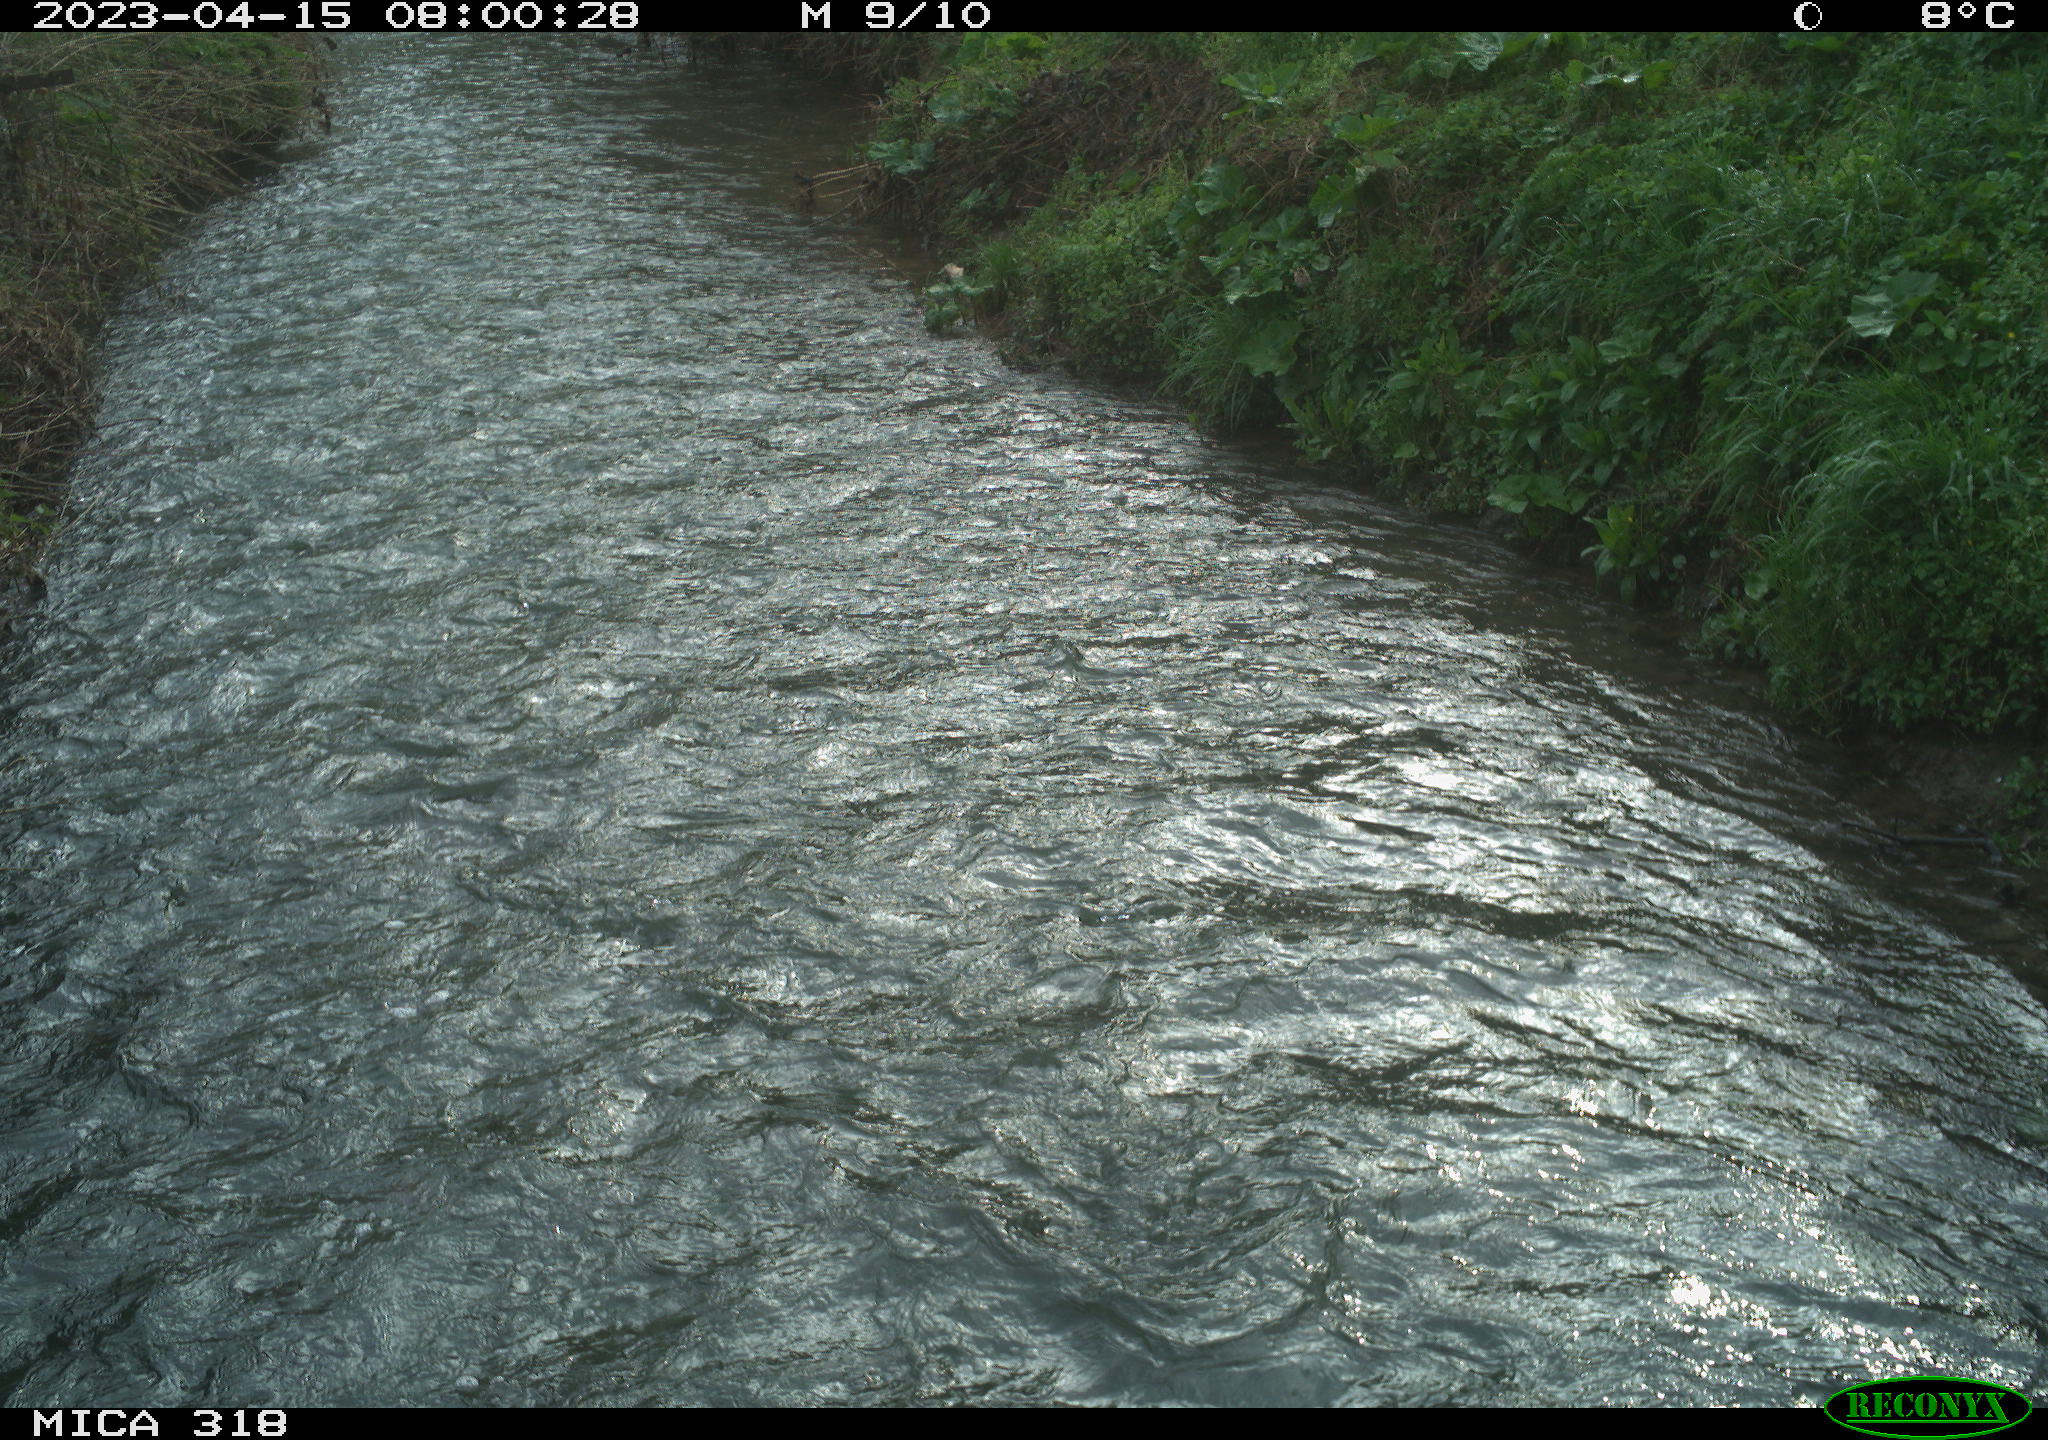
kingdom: Animalia
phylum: Chordata
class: Aves
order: Anseriformes
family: Anatidae
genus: Anas
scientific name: Anas platyrhynchos
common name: Mallard
